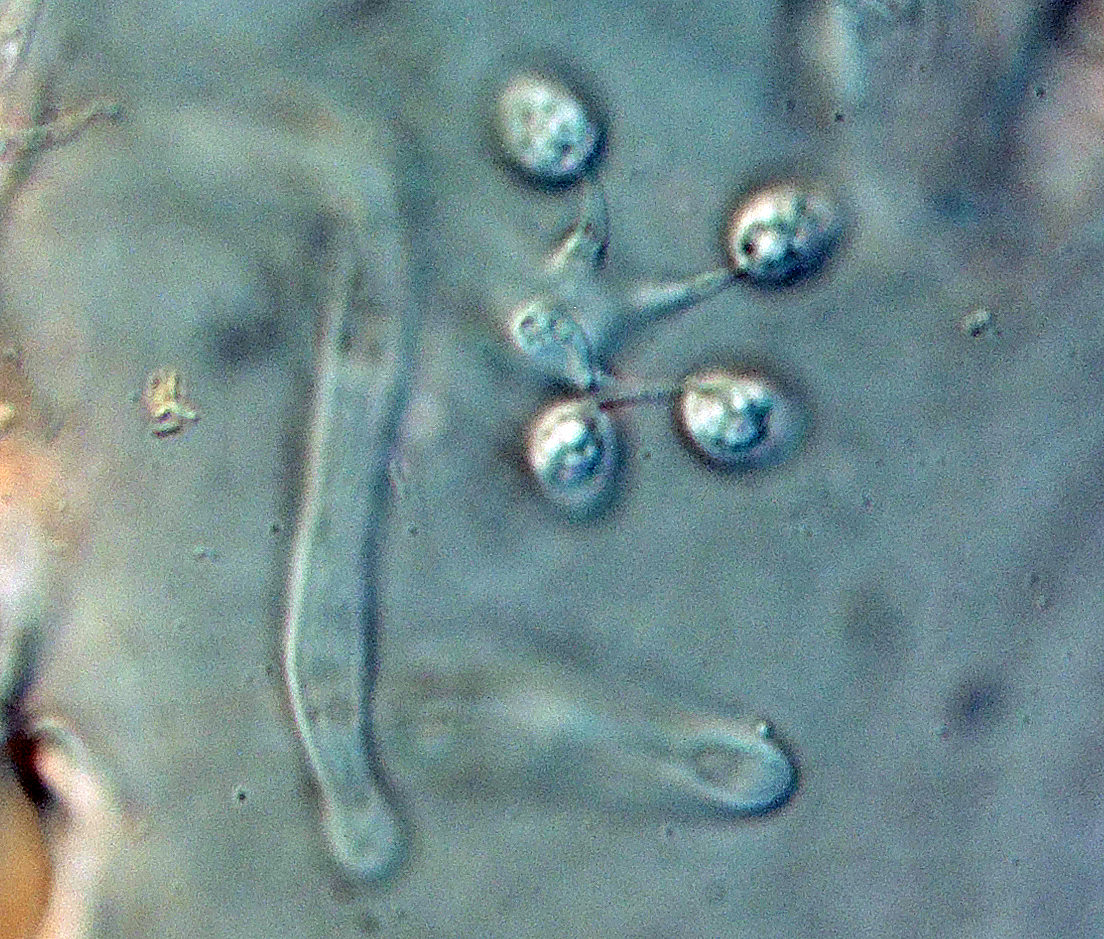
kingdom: Fungi
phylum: Basidiomycota
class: Agaricomycetes
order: Corticiales
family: Corticiaceae
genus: Lyomyces
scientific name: Lyomyces sambuci
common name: almindelig hyldehinde
